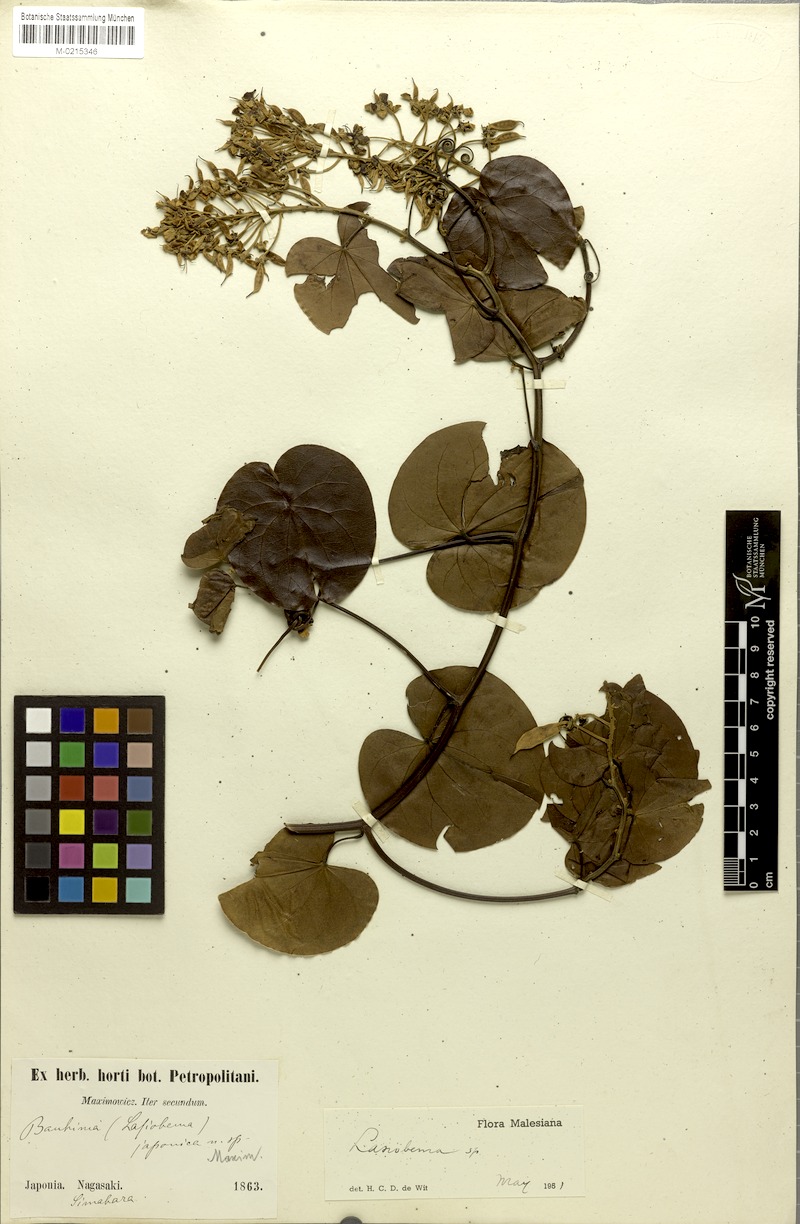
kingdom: Plantae
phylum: Tracheophyta
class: Magnoliopsida
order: Fabales
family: Fabaceae
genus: Phanera
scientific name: Phanera japonica
